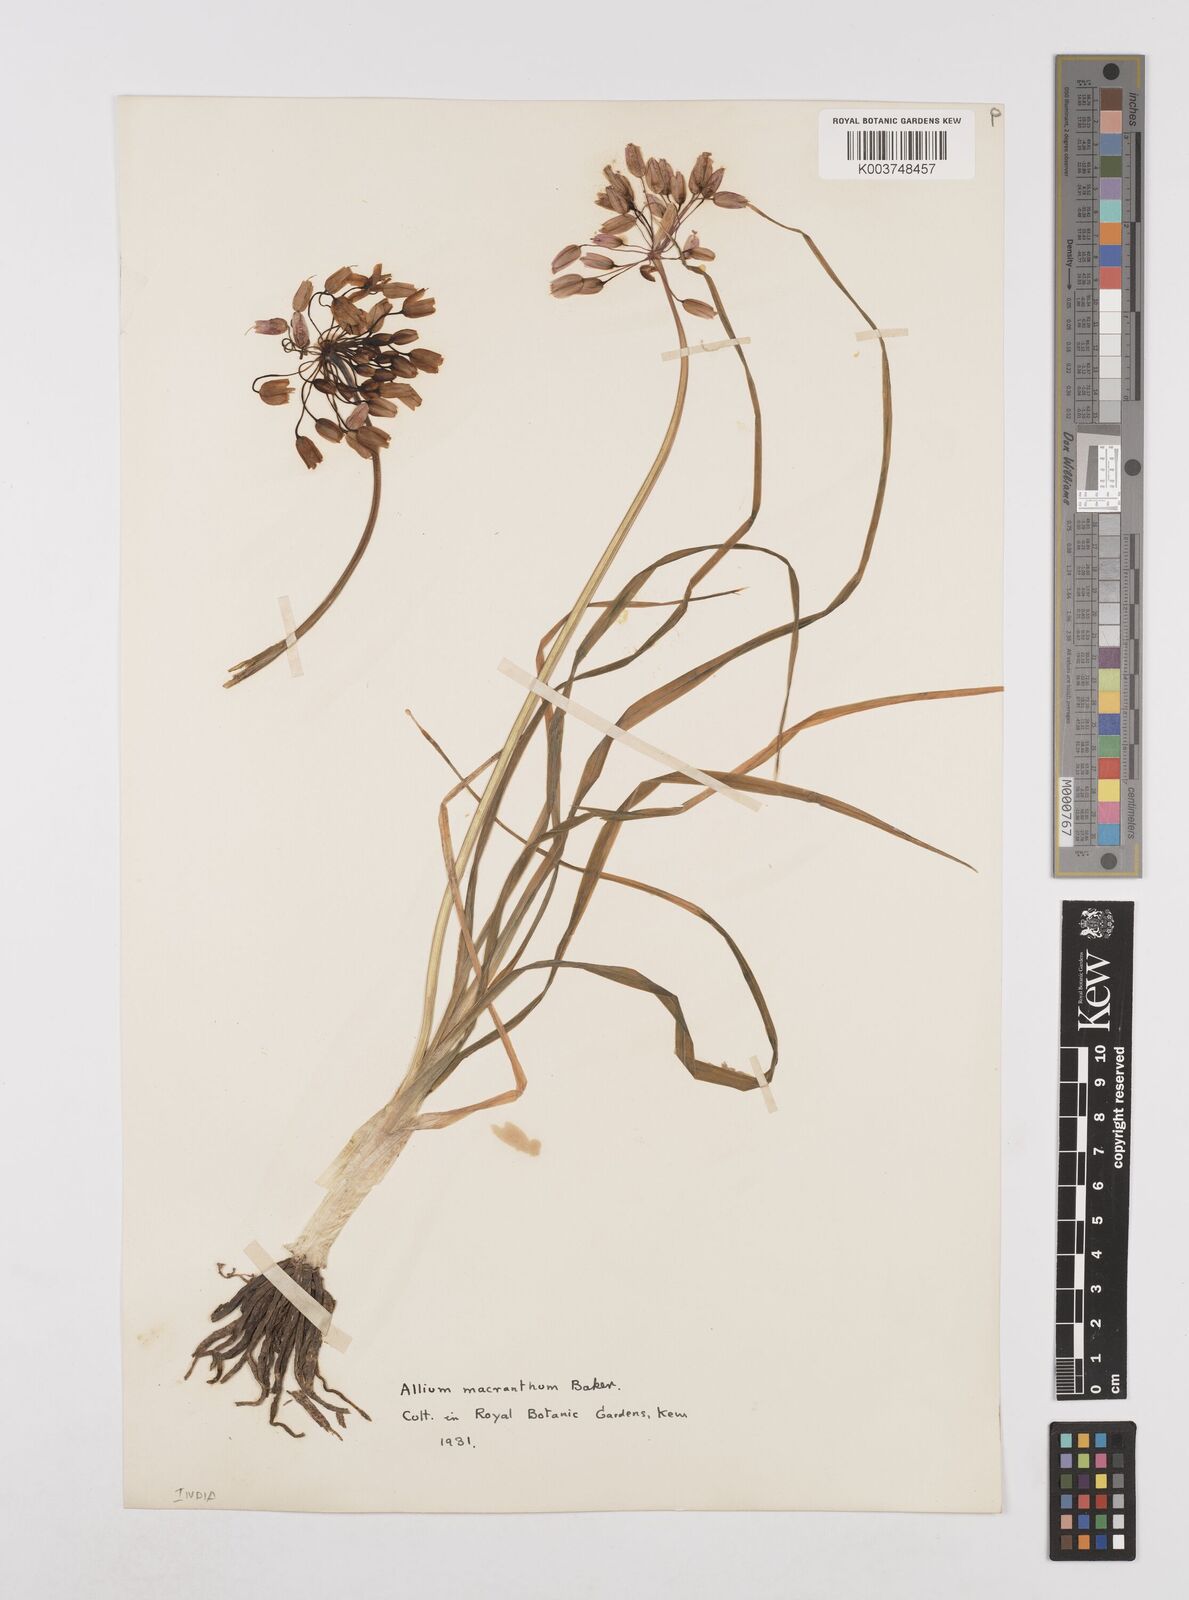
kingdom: Plantae
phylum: Tracheophyta
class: Liliopsida
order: Asparagales
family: Amaryllidaceae
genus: Allium
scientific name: Allium macranthum
